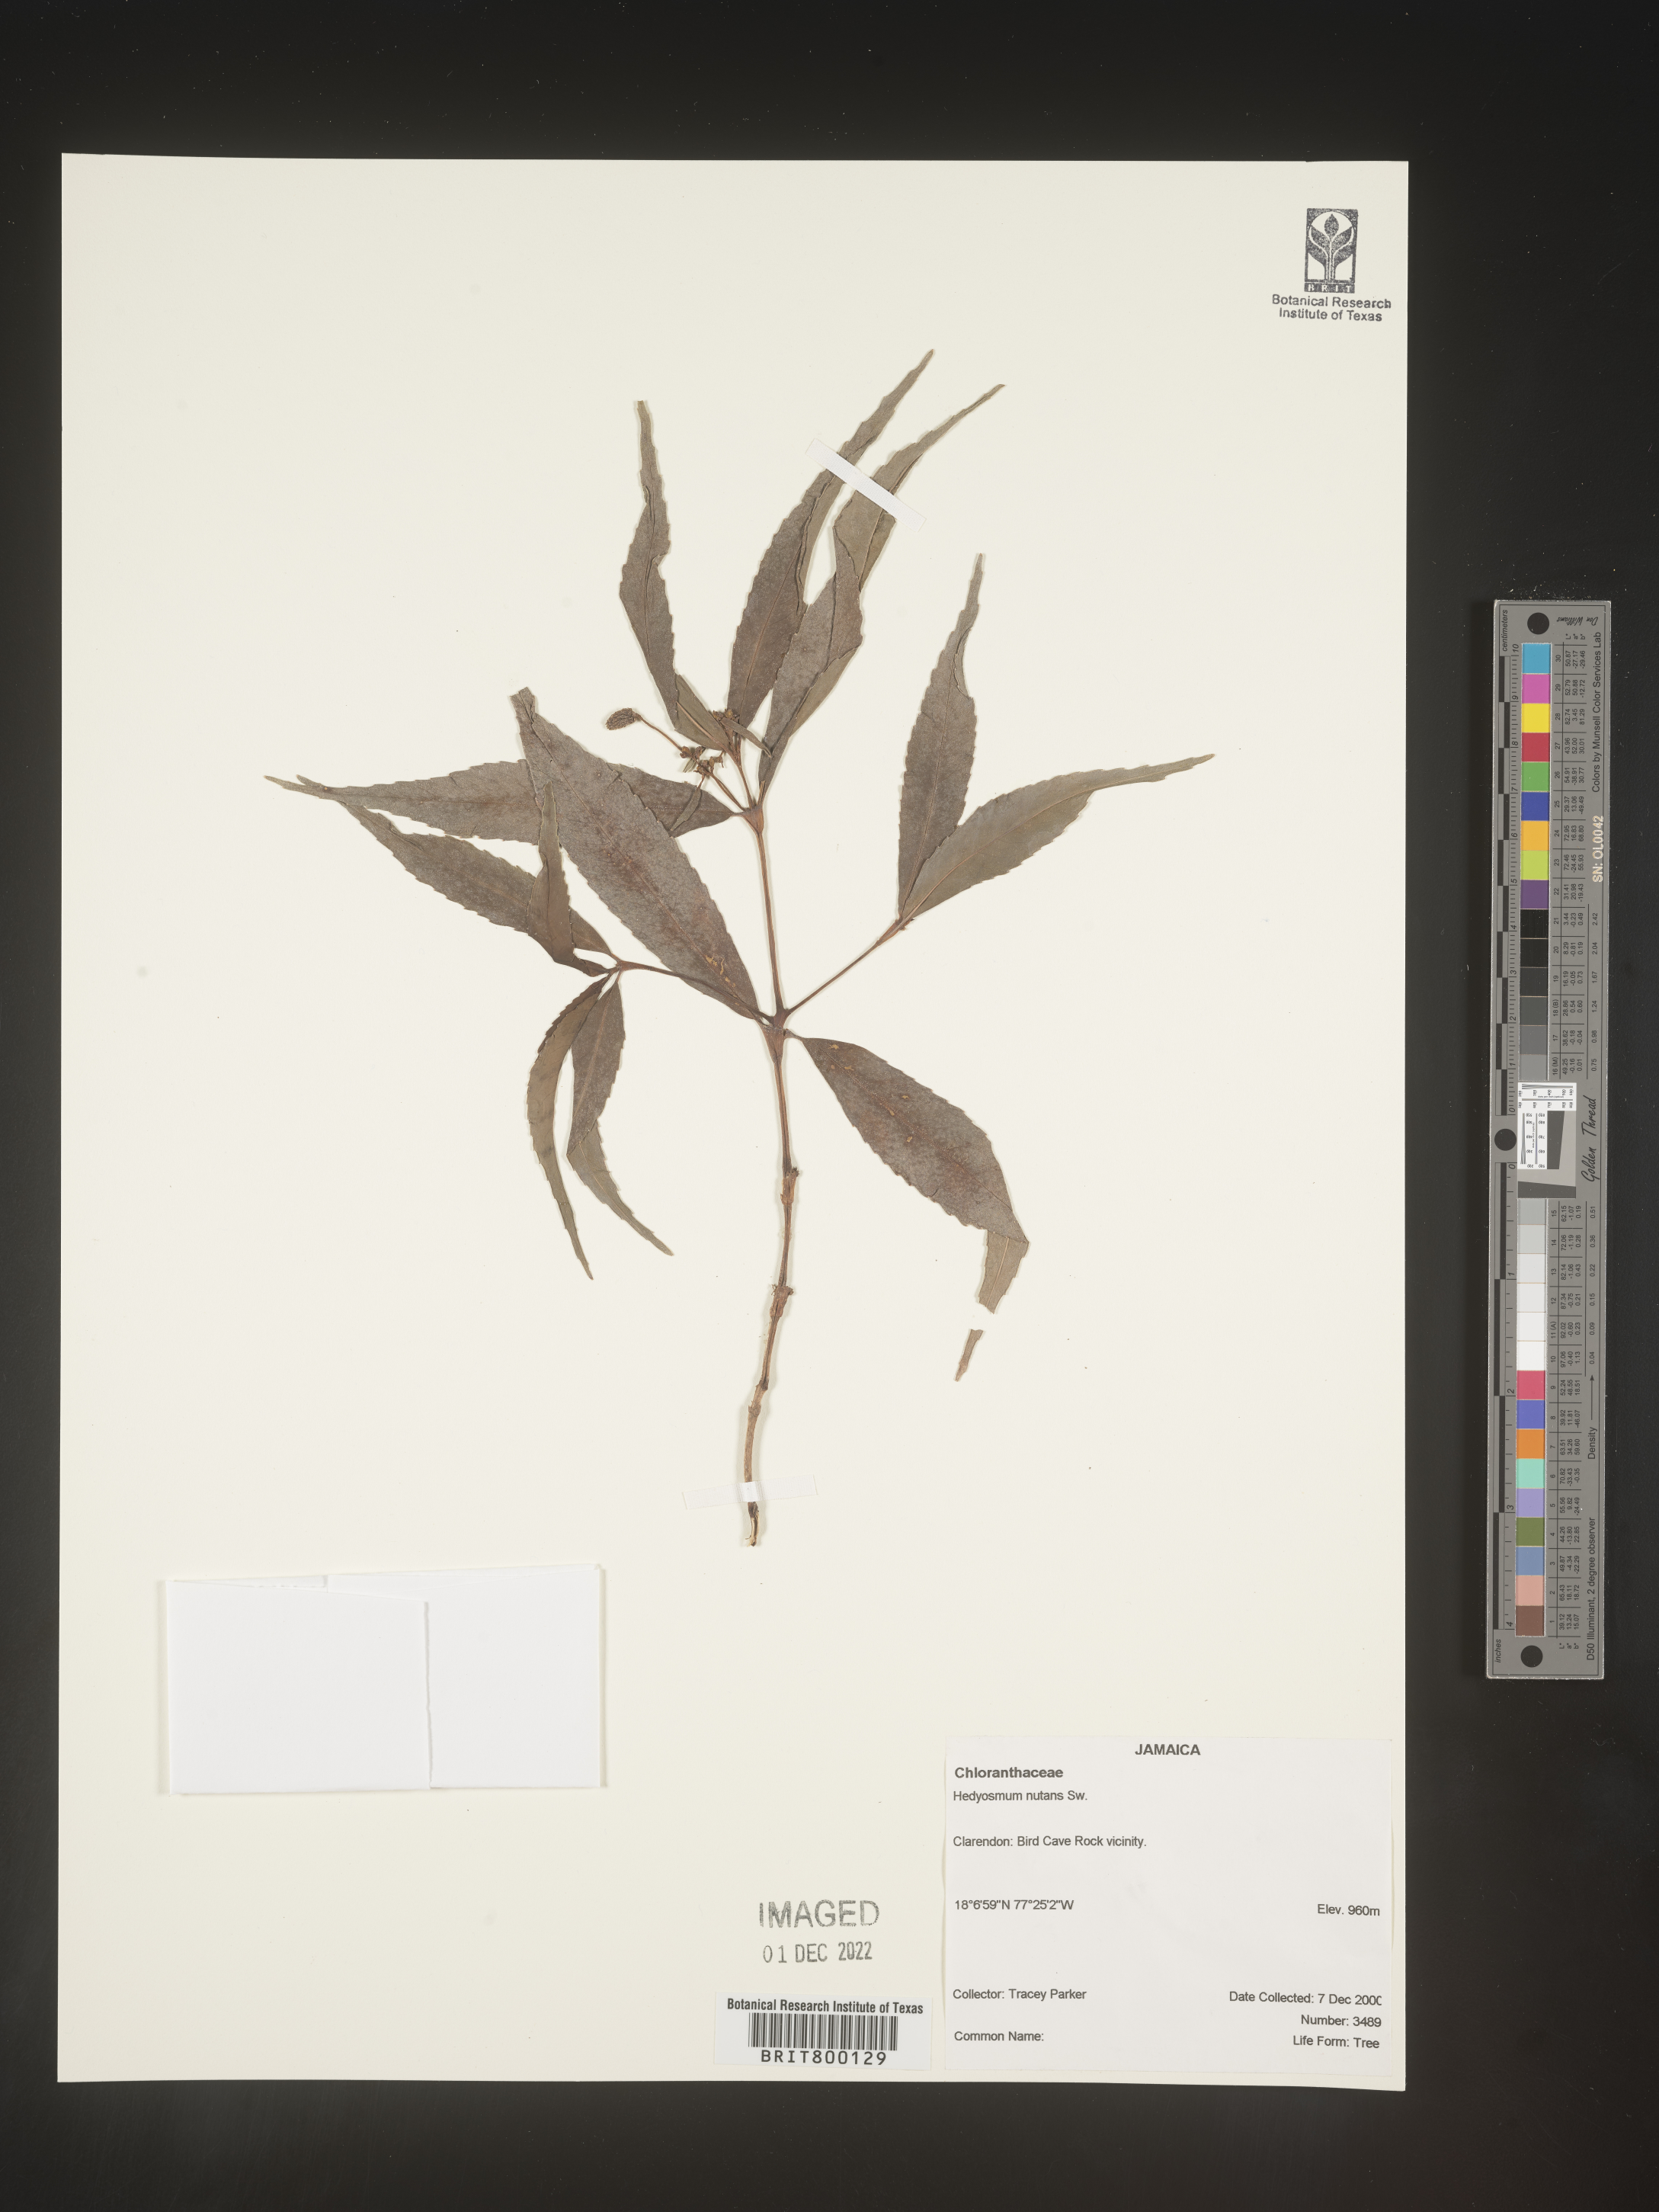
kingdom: Plantae
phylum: Tracheophyta
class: Magnoliopsida
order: Chloranthales
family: Chloranthaceae
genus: Hedyosmum
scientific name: Hedyosmum
